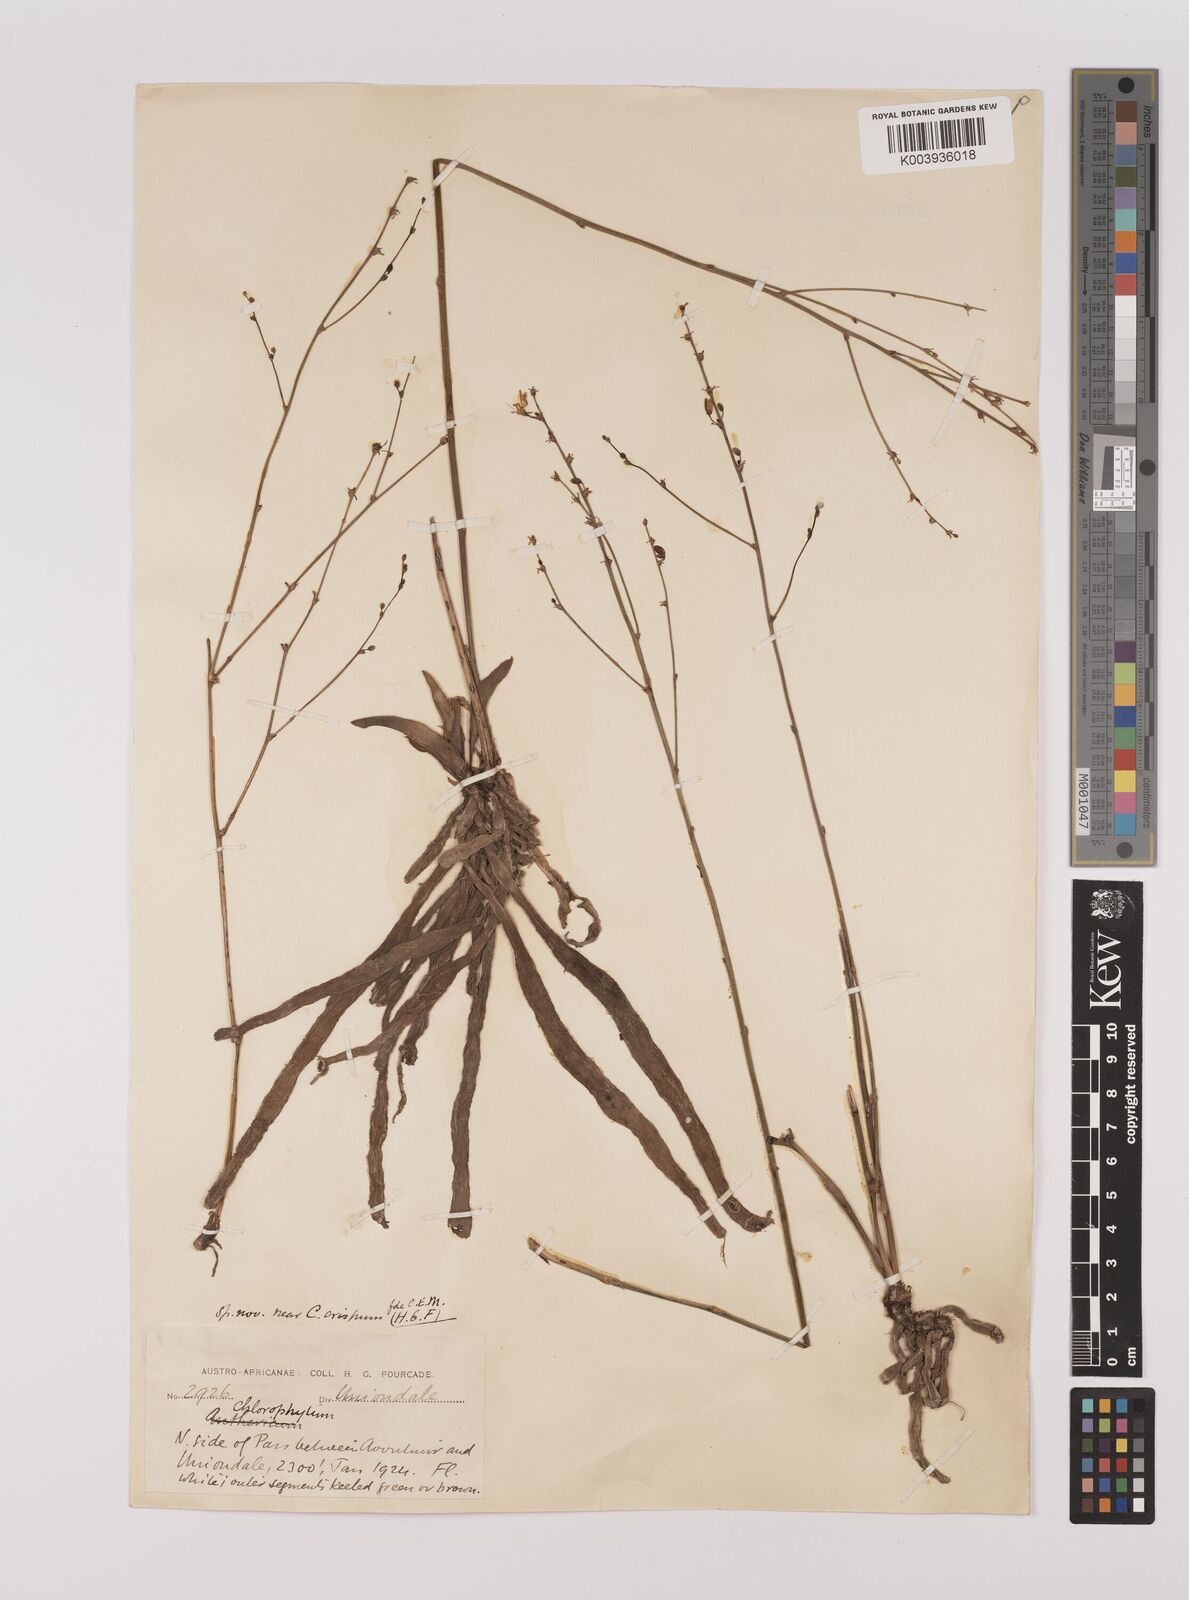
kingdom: Plantae
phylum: Tracheophyta
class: Liliopsida
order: Asparagales
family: Asparagaceae
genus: Chlorophytum
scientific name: Chlorophytum crispum
